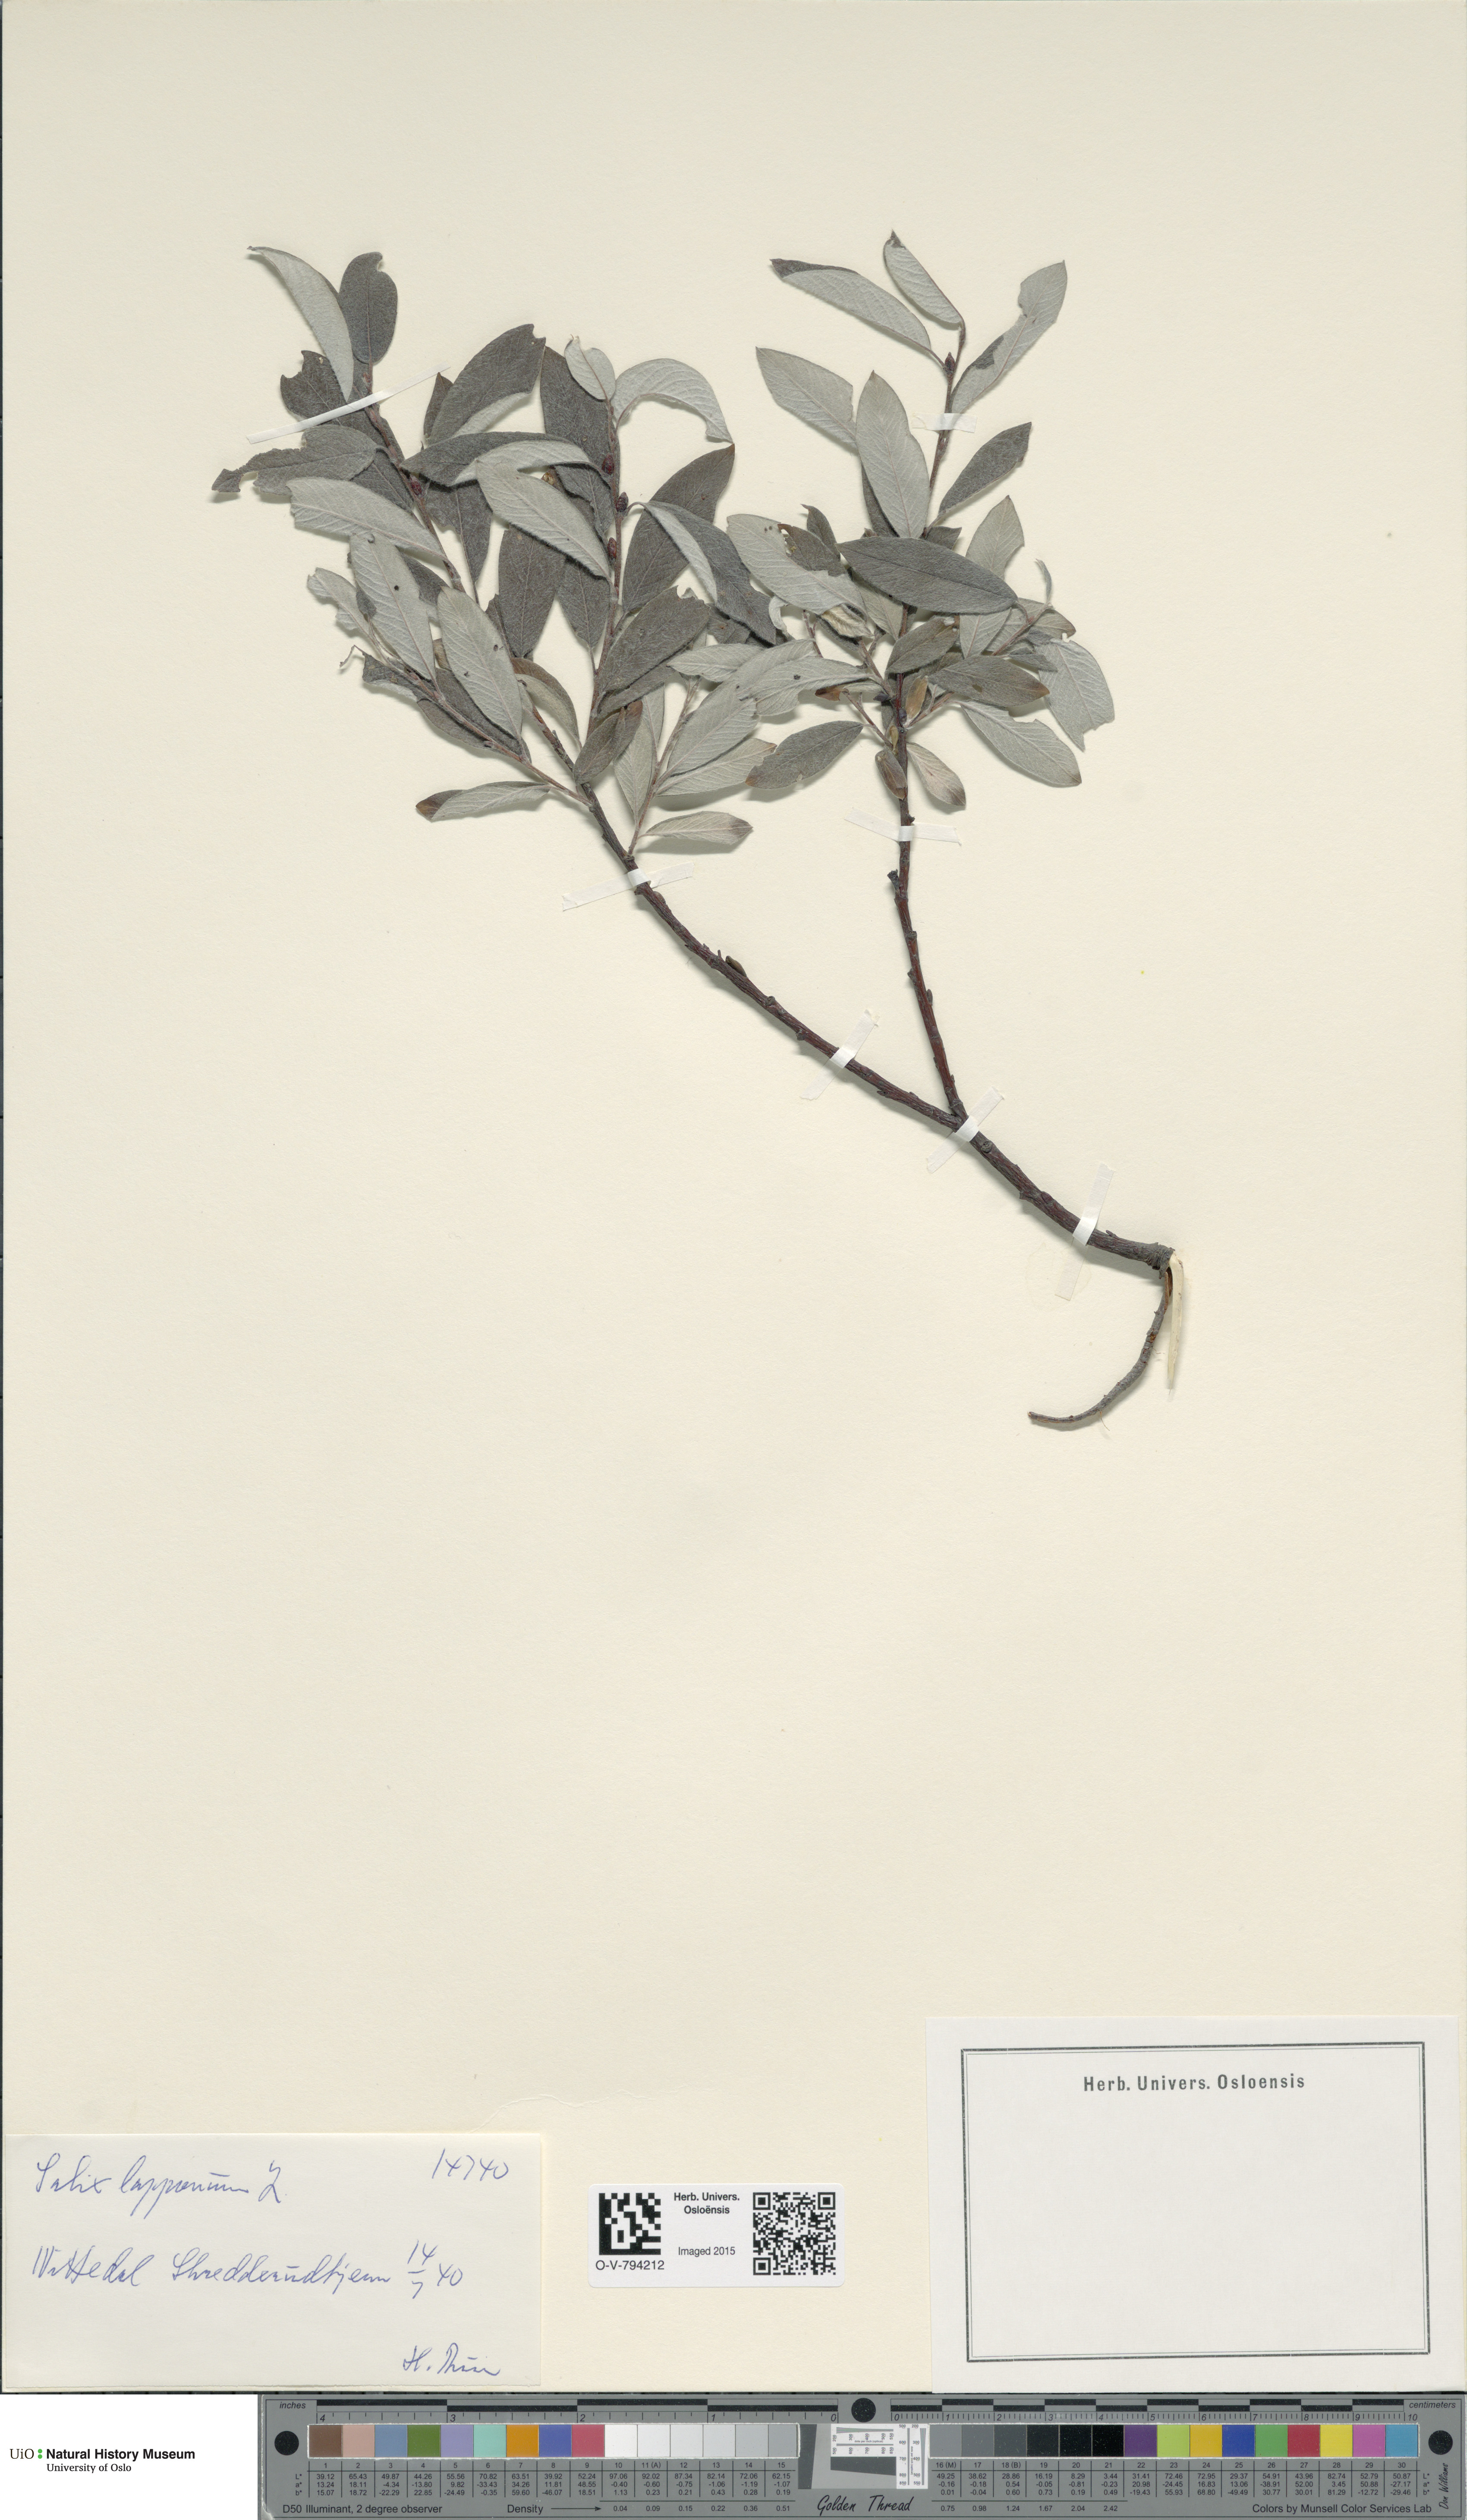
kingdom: Plantae
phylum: Tracheophyta
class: Magnoliopsida
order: Malpighiales
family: Salicaceae
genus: Salix
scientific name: Salix lapponum
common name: Downy willow
